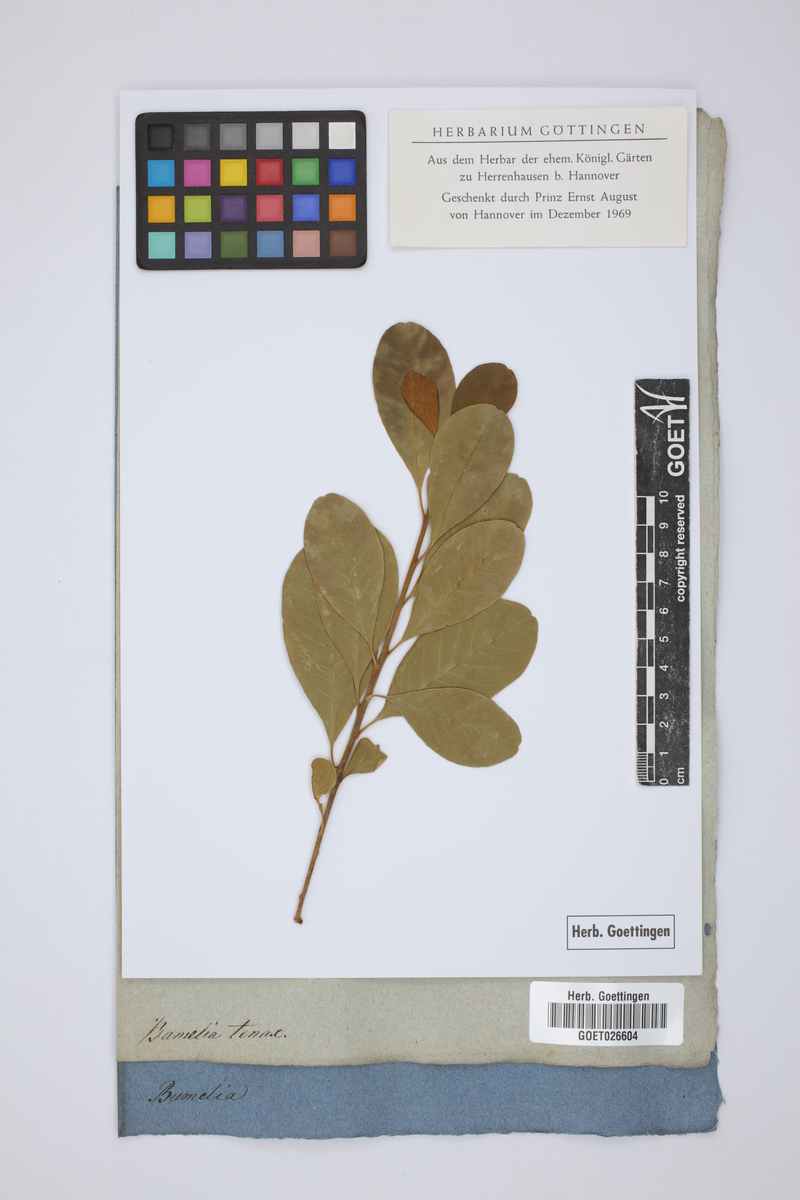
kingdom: Plantae
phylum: Tracheophyta
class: Magnoliopsida
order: Ericales
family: Sapotaceae
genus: Sideroxylon
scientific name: Sideroxylon tenax
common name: Tough-buckthorn
